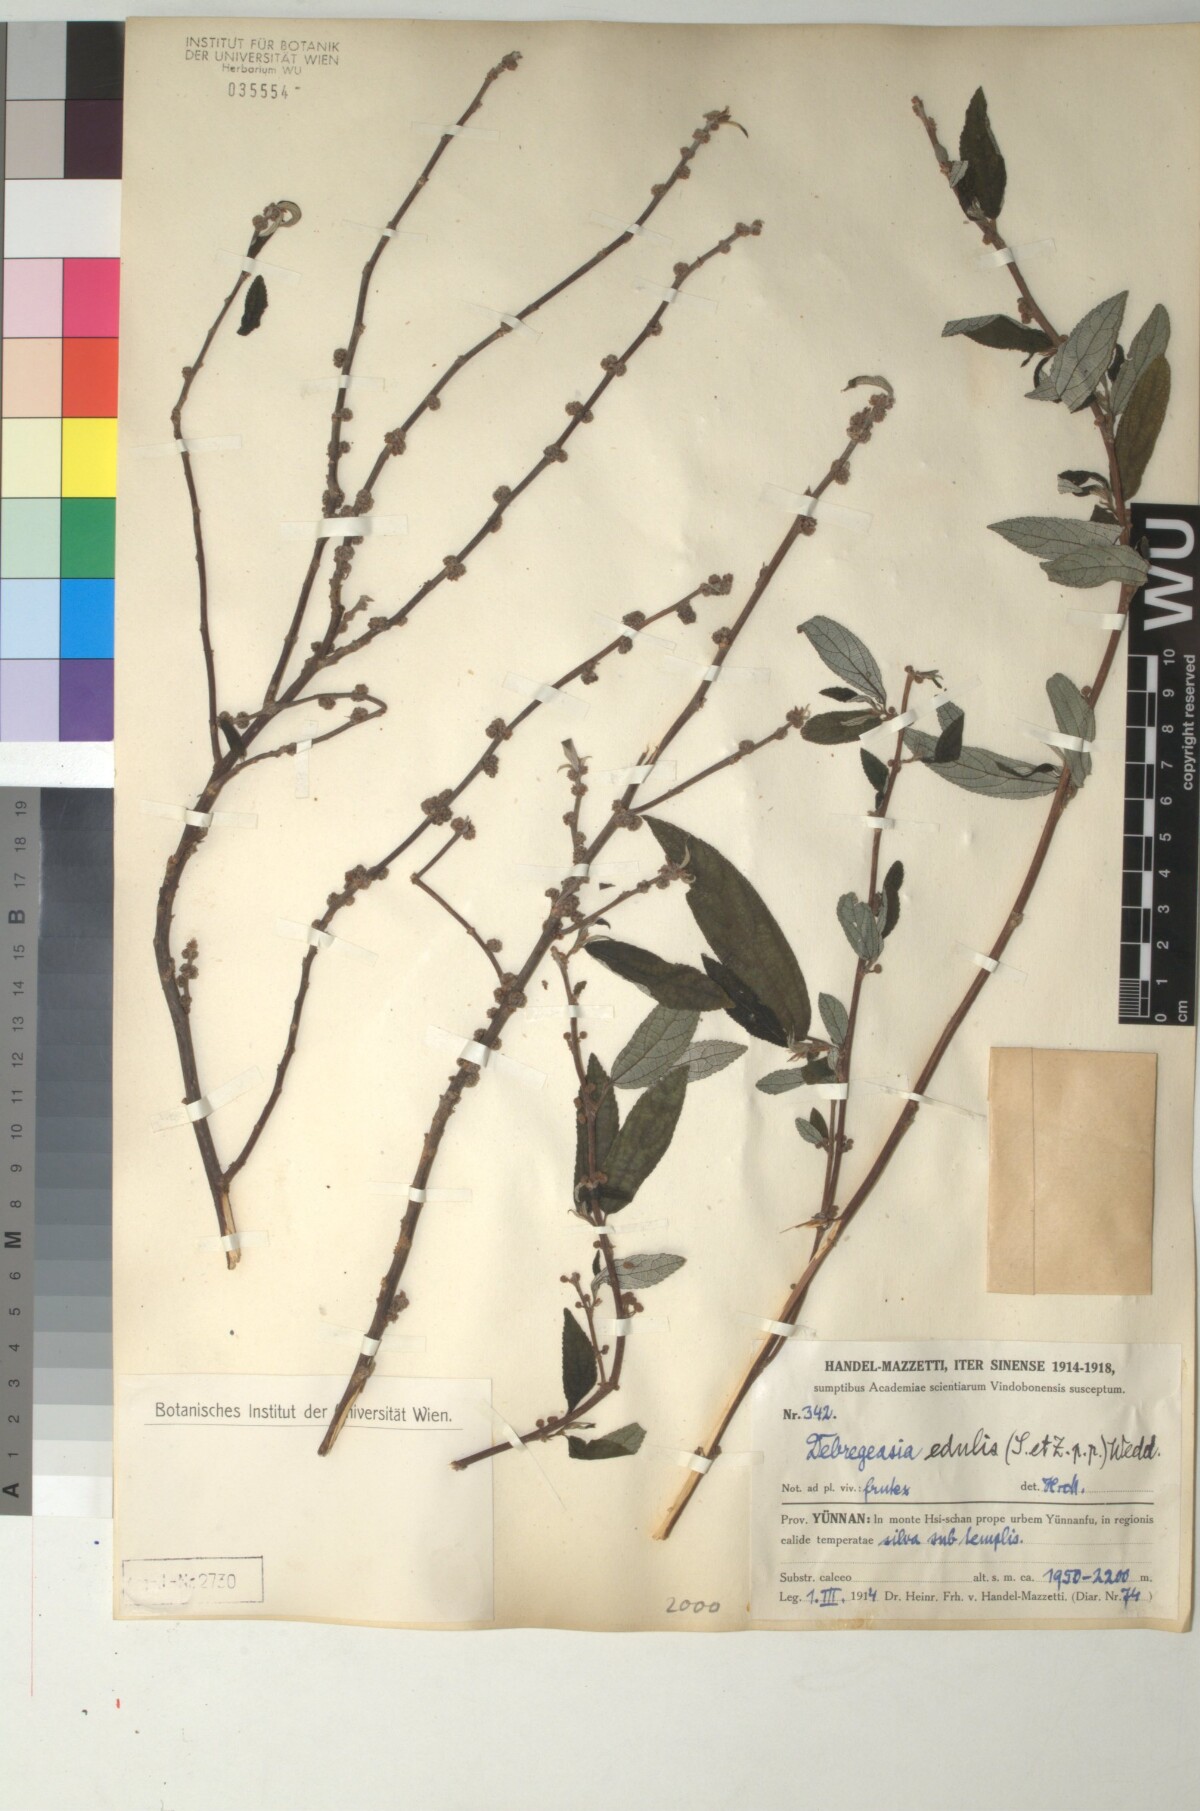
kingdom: Plantae
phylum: Tracheophyta
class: Magnoliopsida
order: Rosales
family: Urticaceae
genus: Debregeasia
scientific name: Debregeasia edulis
